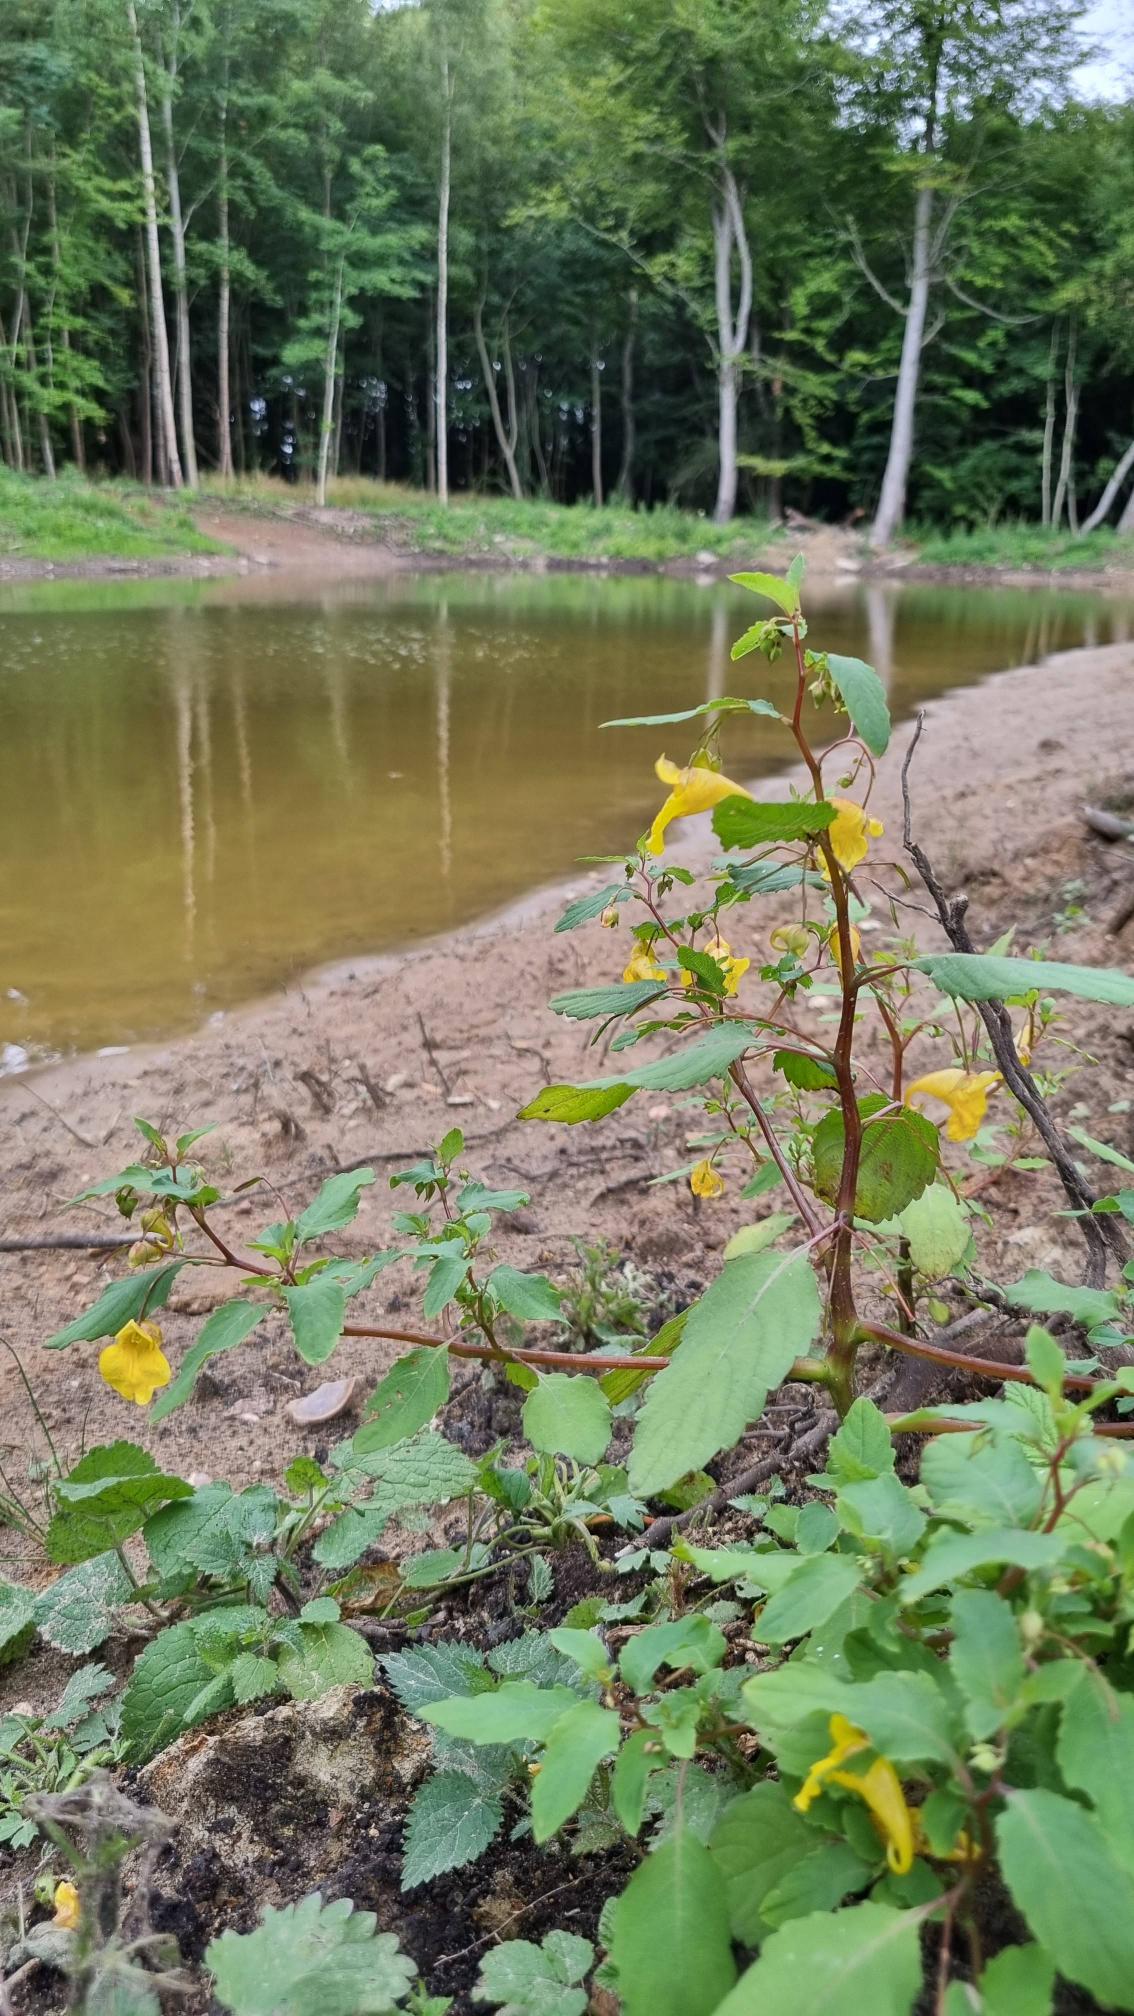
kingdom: Plantae
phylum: Tracheophyta
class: Magnoliopsida
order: Ericales
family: Balsaminaceae
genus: Impatiens
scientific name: Impatiens noli-tangere
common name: Spring-balsamin
